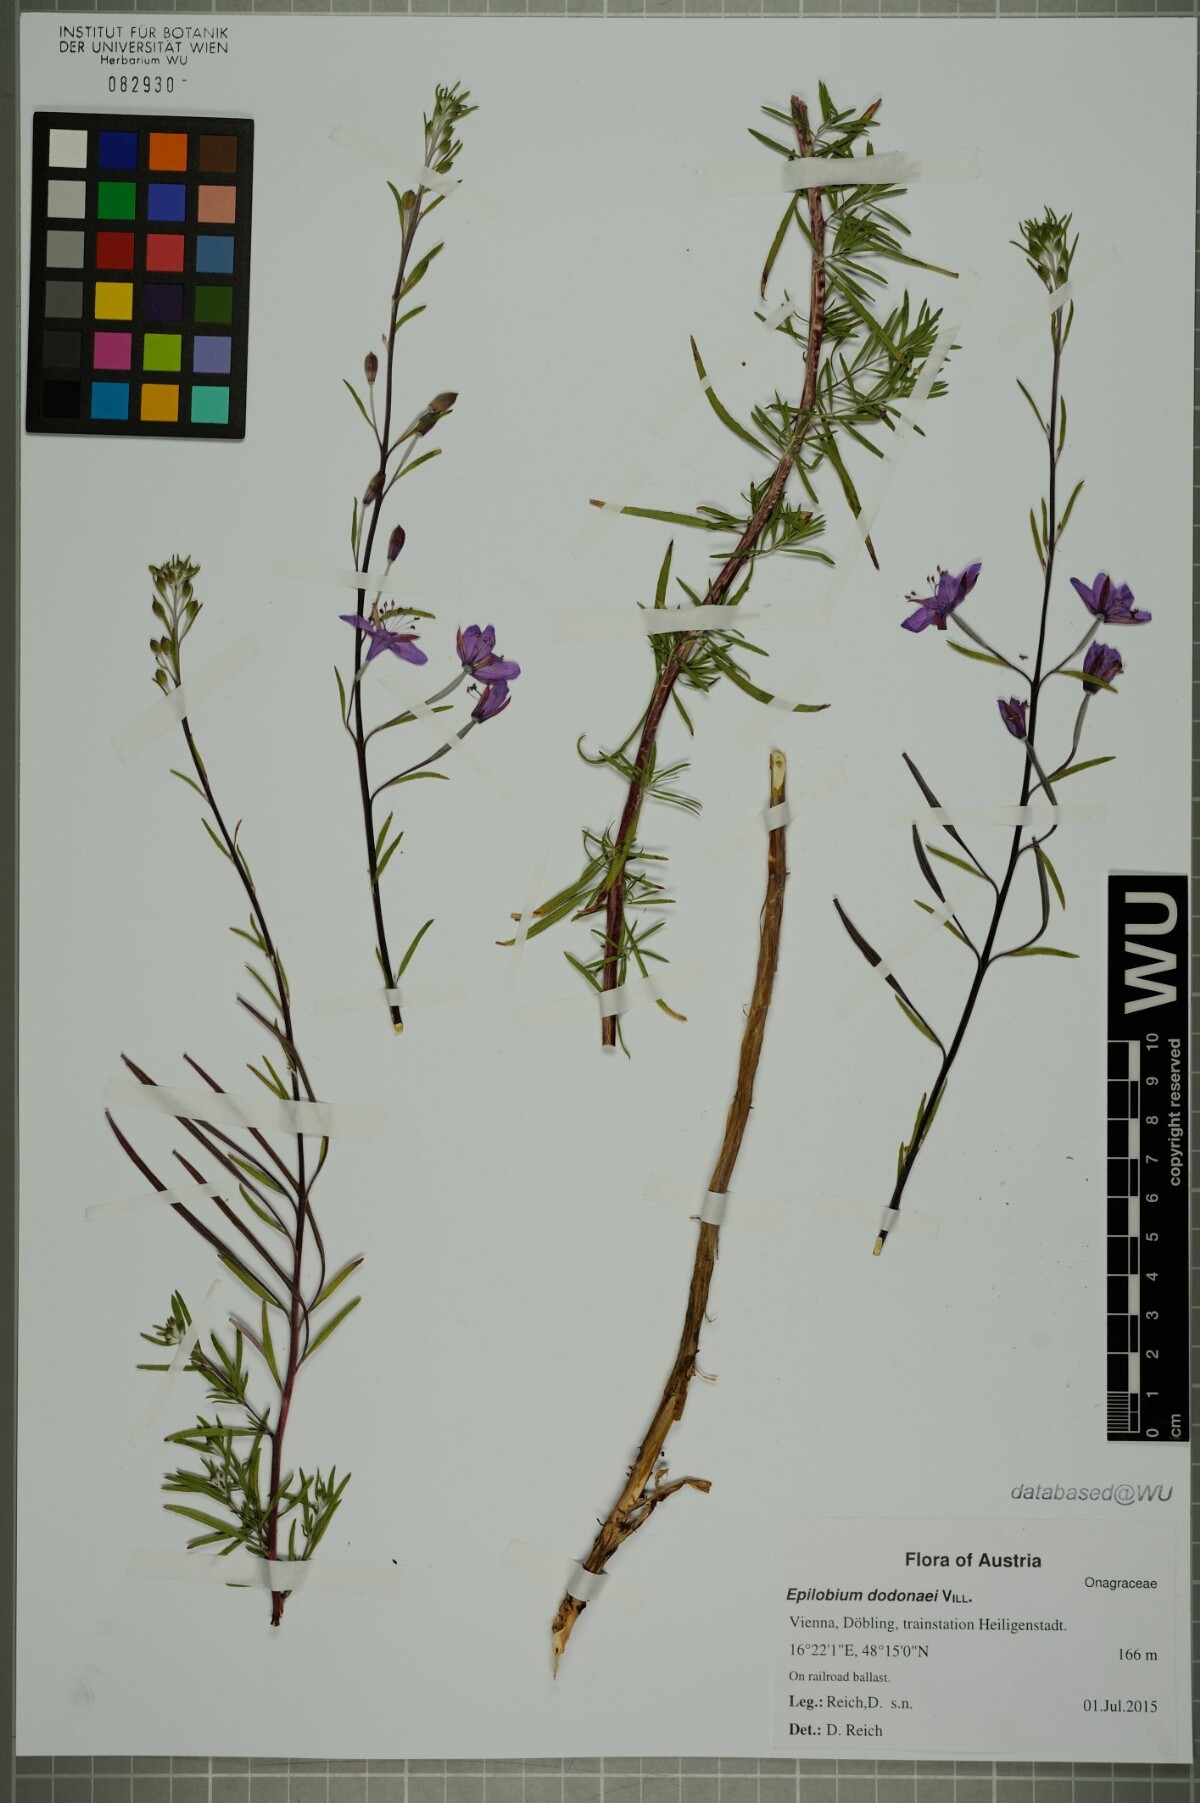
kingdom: Plantae
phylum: Tracheophyta
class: Magnoliopsida
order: Myrtales
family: Onagraceae
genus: Chamaenerion
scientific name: Chamaenerion dodonaei
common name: Rosemary-leaved willowherb
